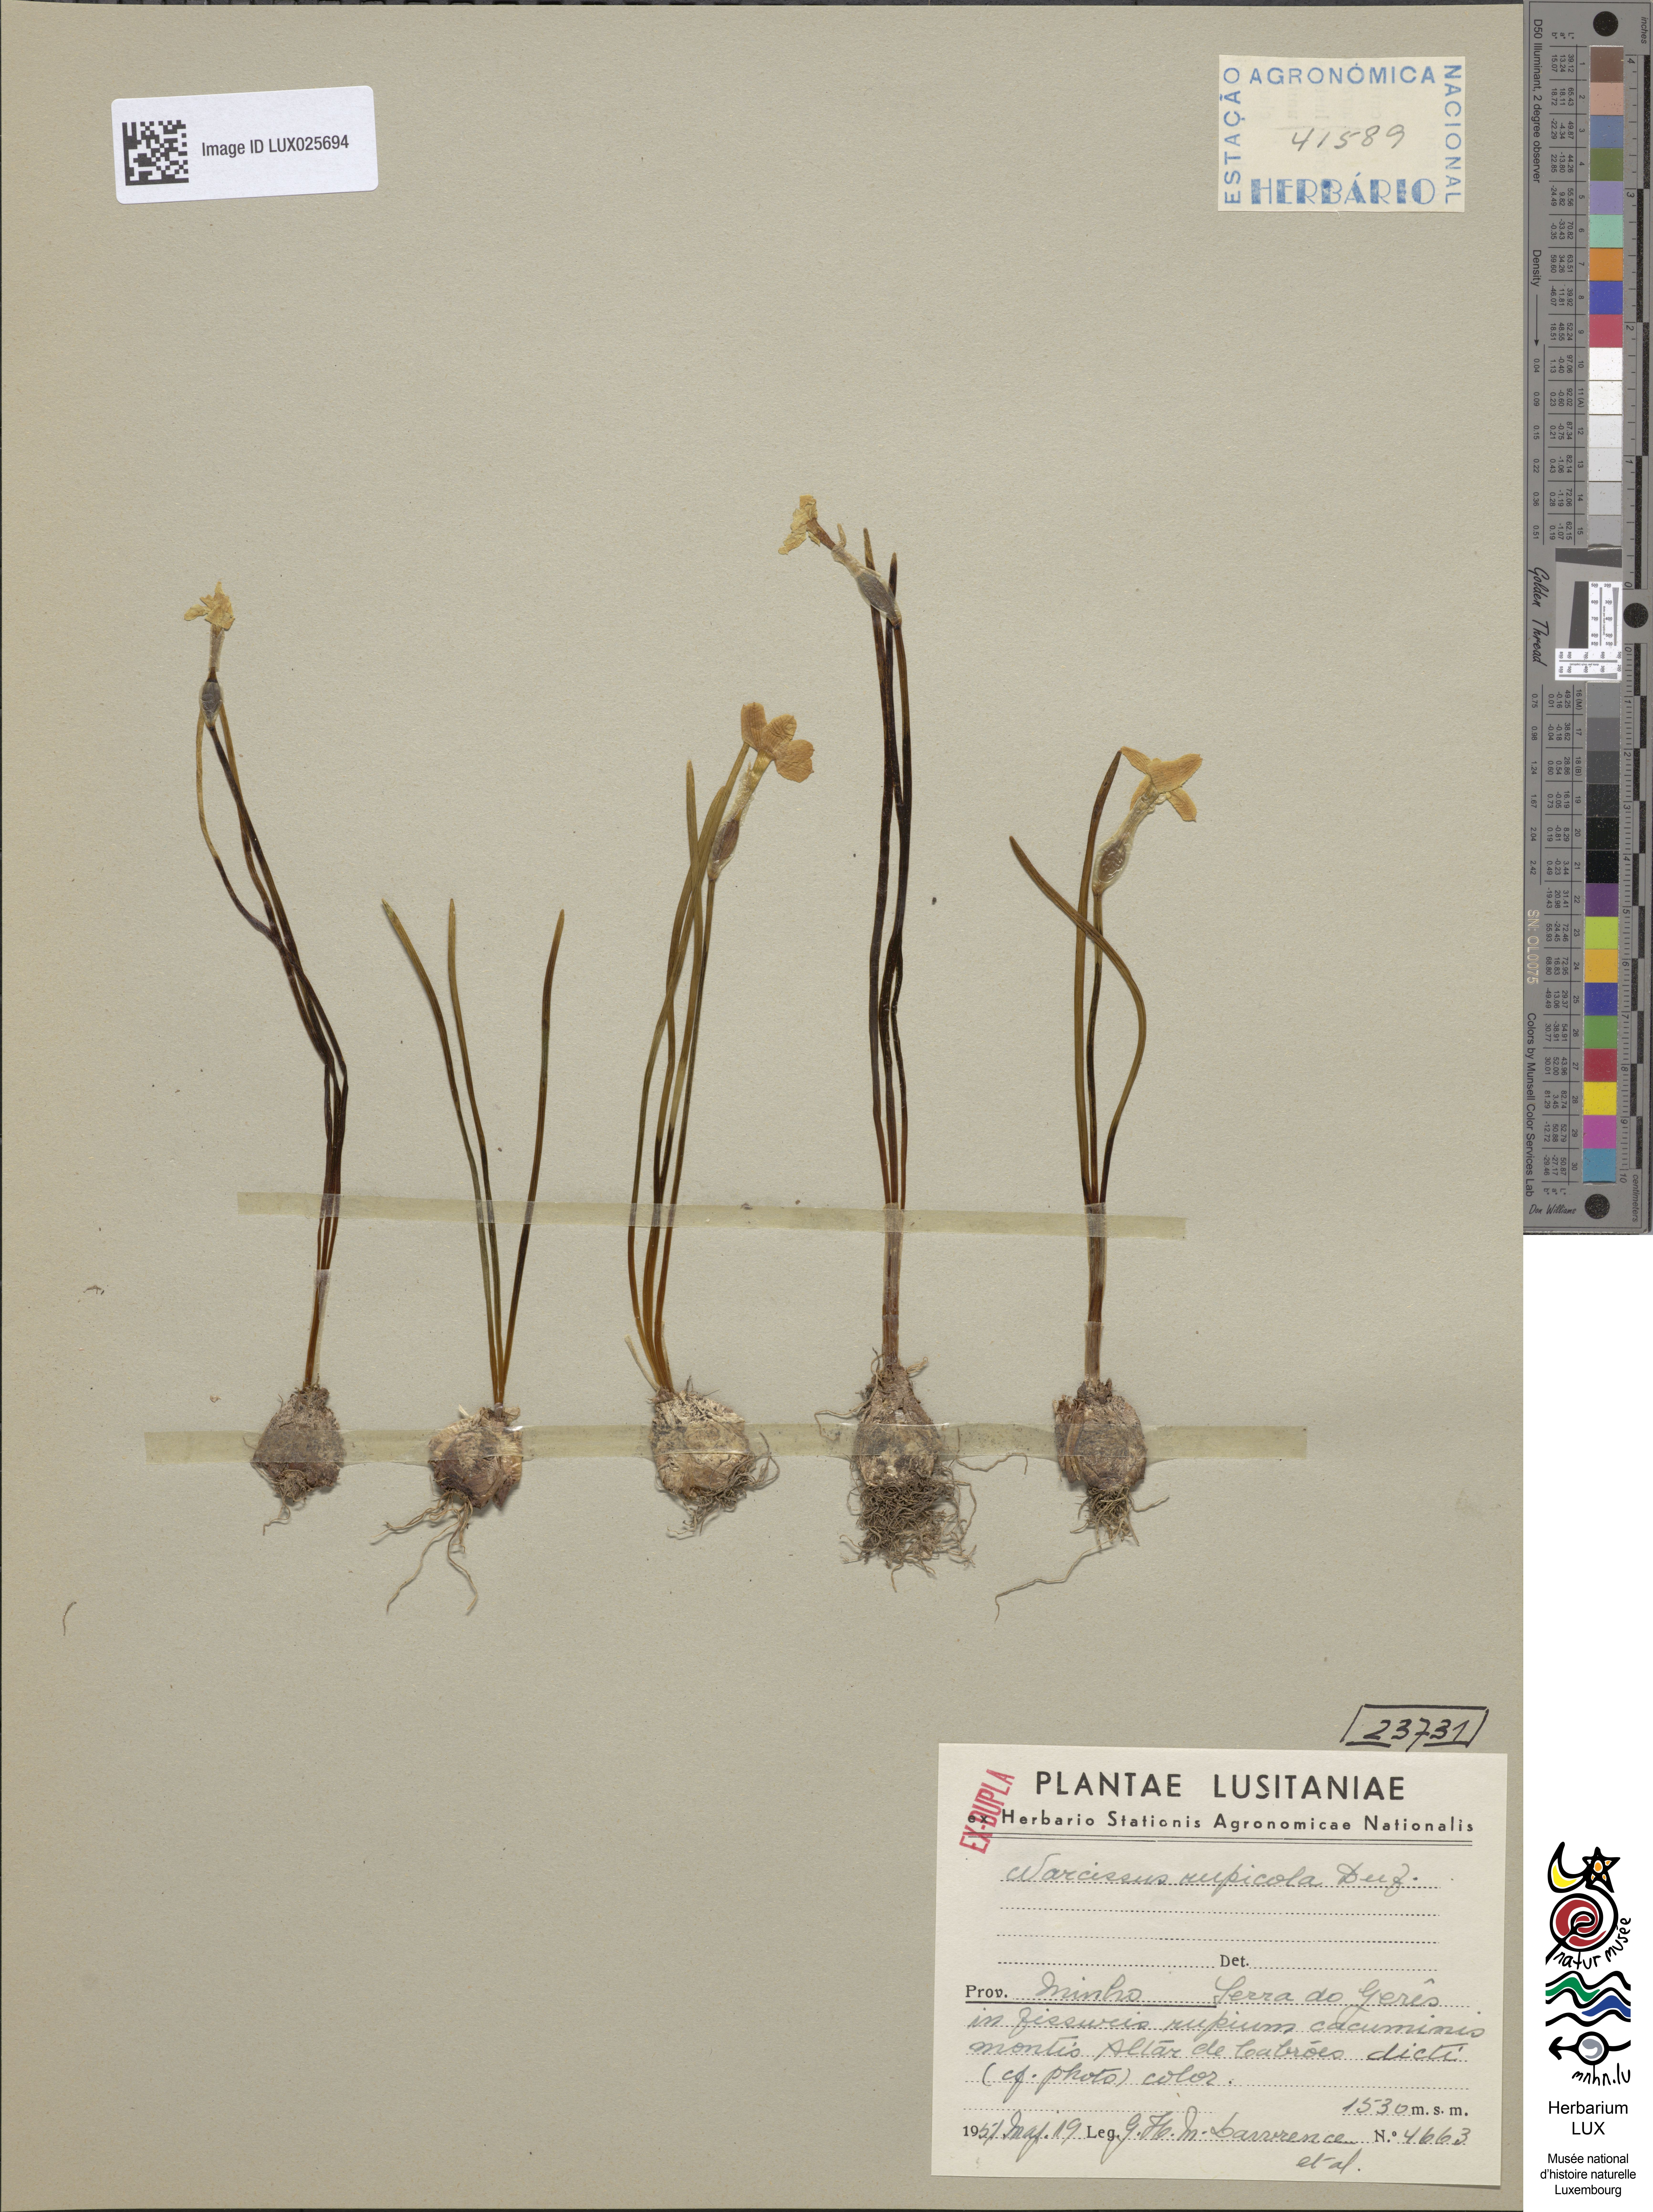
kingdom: Plantae
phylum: Tracheophyta
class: Liliopsida
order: Asparagales
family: Amaryllidaceae
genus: Narcissus
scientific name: Narcissus rupicola
